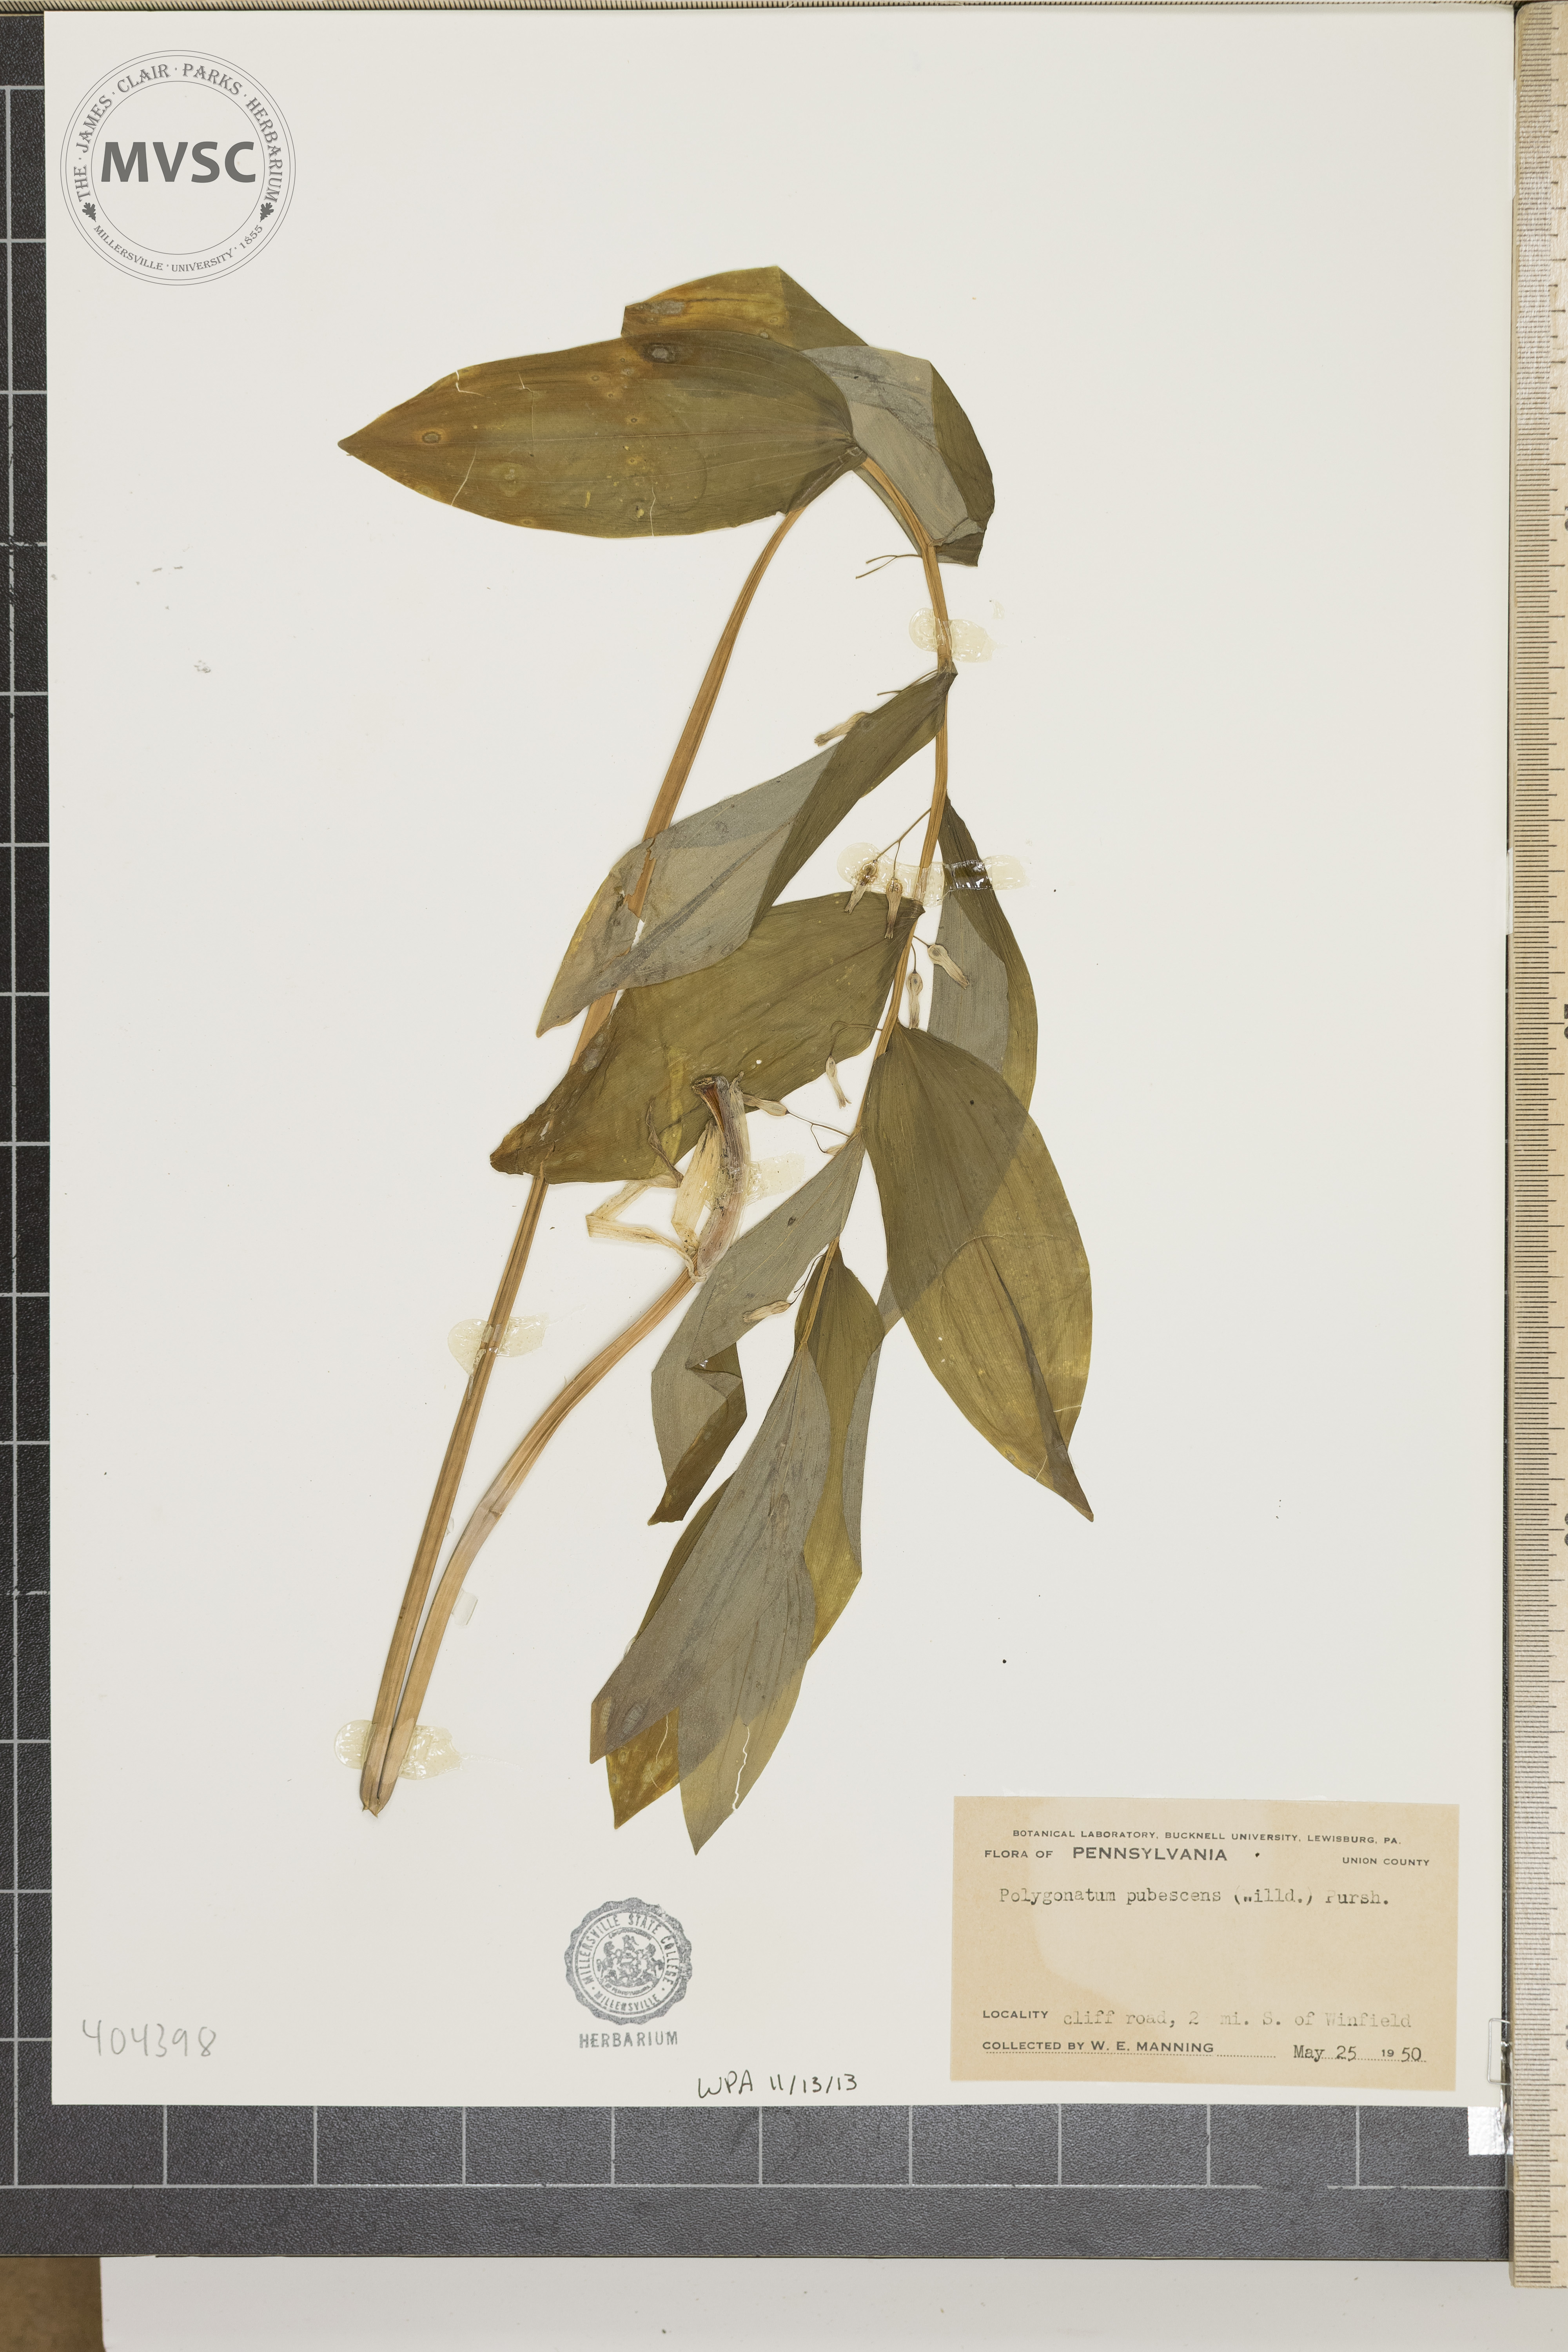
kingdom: Plantae
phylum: Tracheophyta
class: Liliopsida
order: Asparagales
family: Asparagaceae
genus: Polygonatum
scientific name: Polygonatum pubescens
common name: Downy solomon's seal
